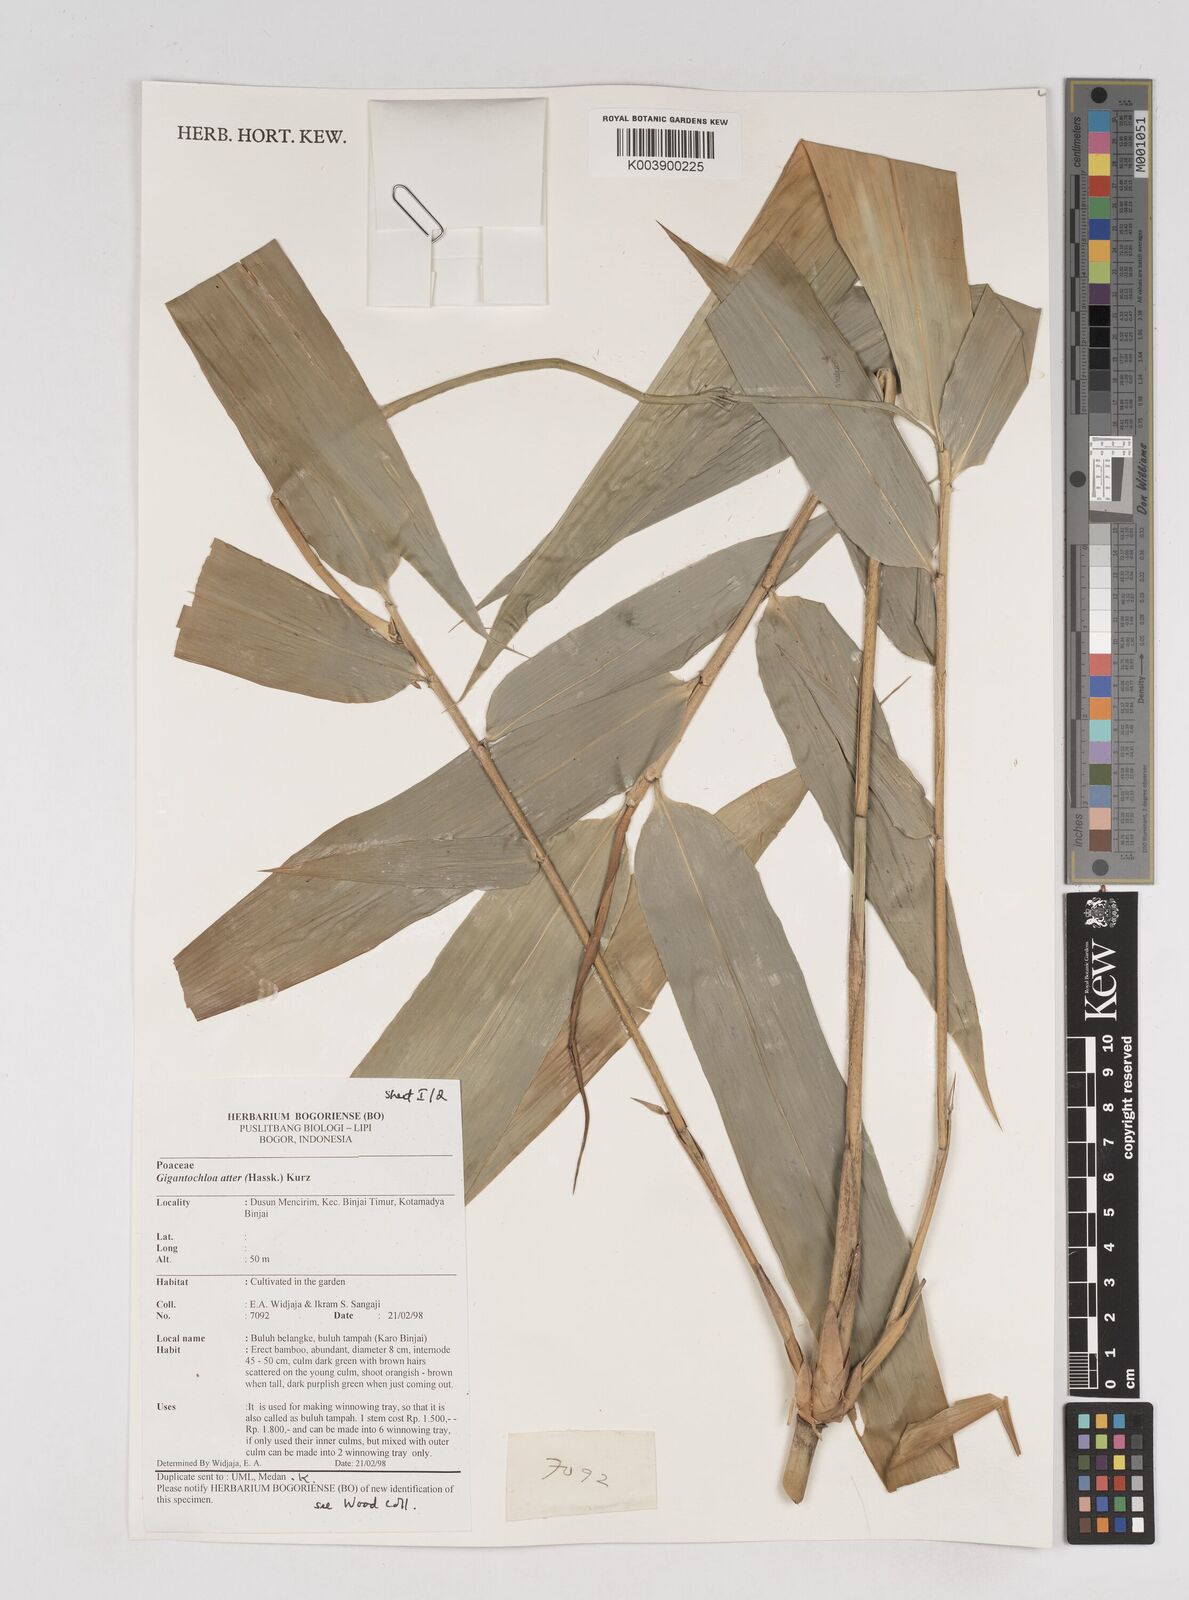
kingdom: Plantae
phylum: Tracheophyta
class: Liliopsida
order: Poales
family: Poaceae
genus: Gigantochloa
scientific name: Gigantochloa atter
